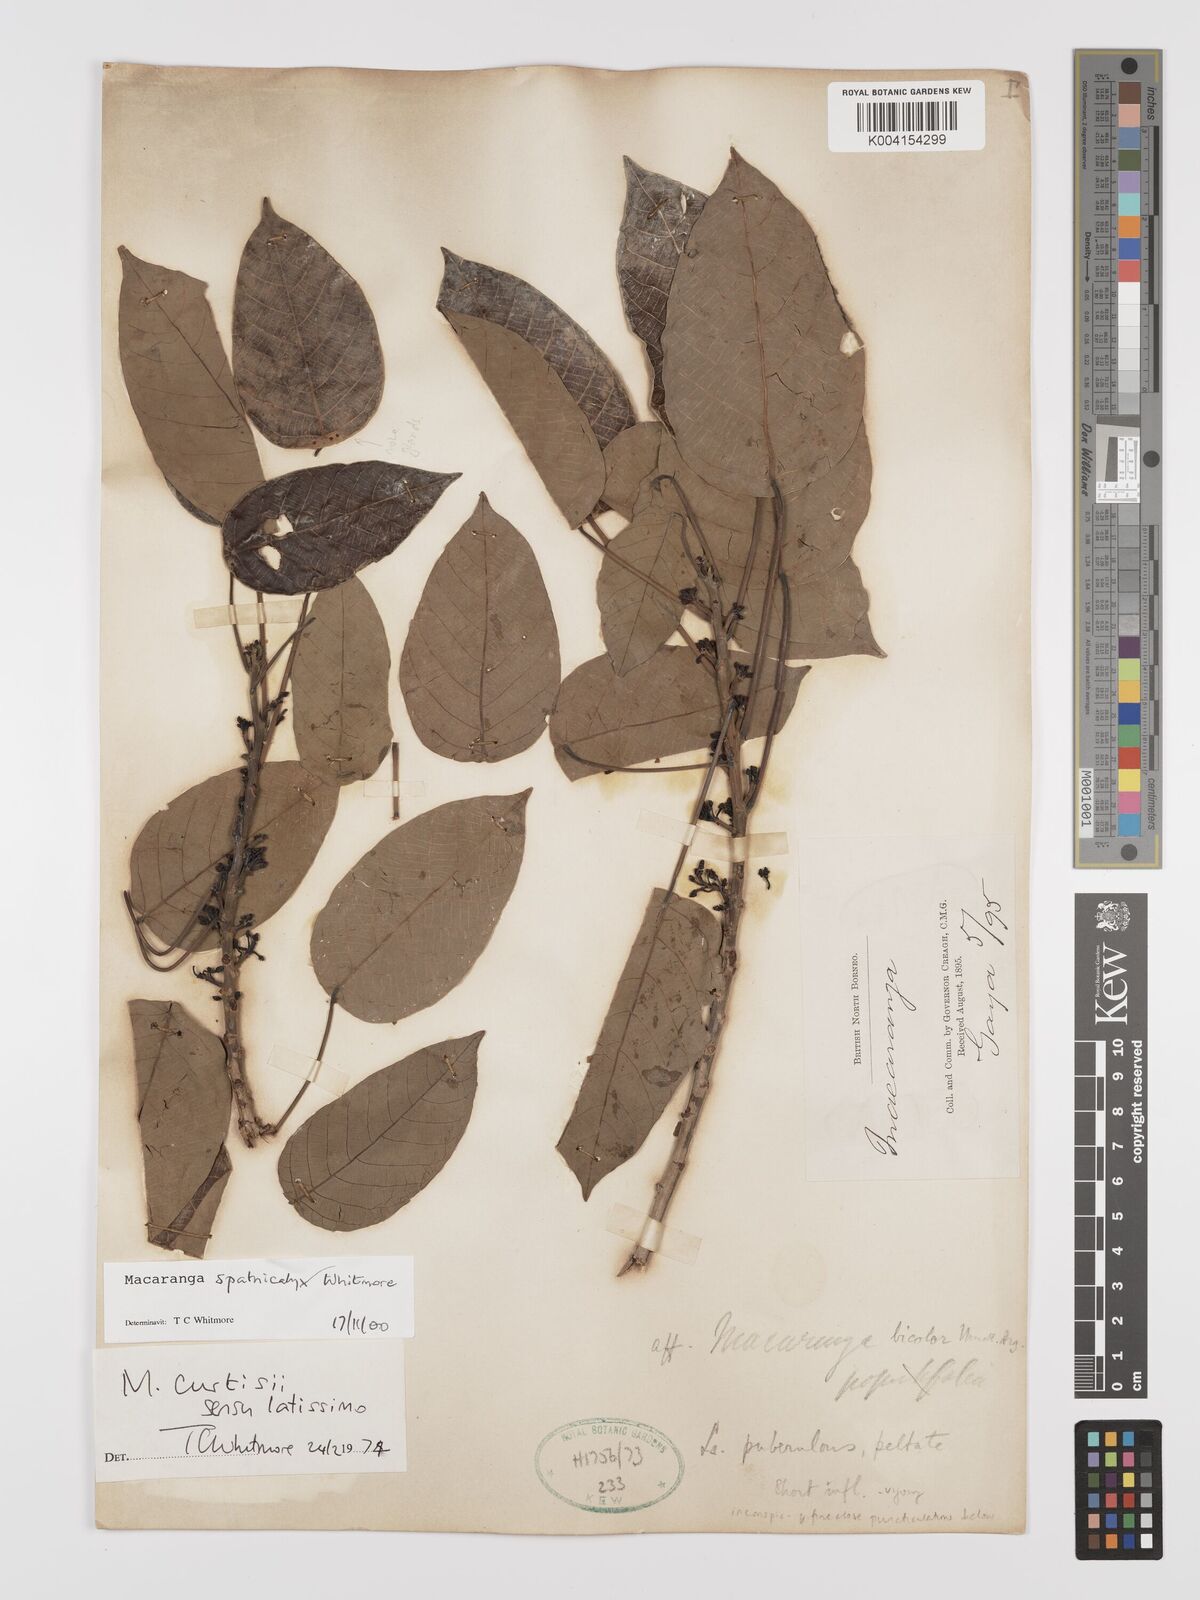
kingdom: Plantae
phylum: Tracheophyta
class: Magnoliopsida
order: Malpighiales
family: Euphorbiaceae
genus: Macaranga
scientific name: Macaranga spathicalyx
